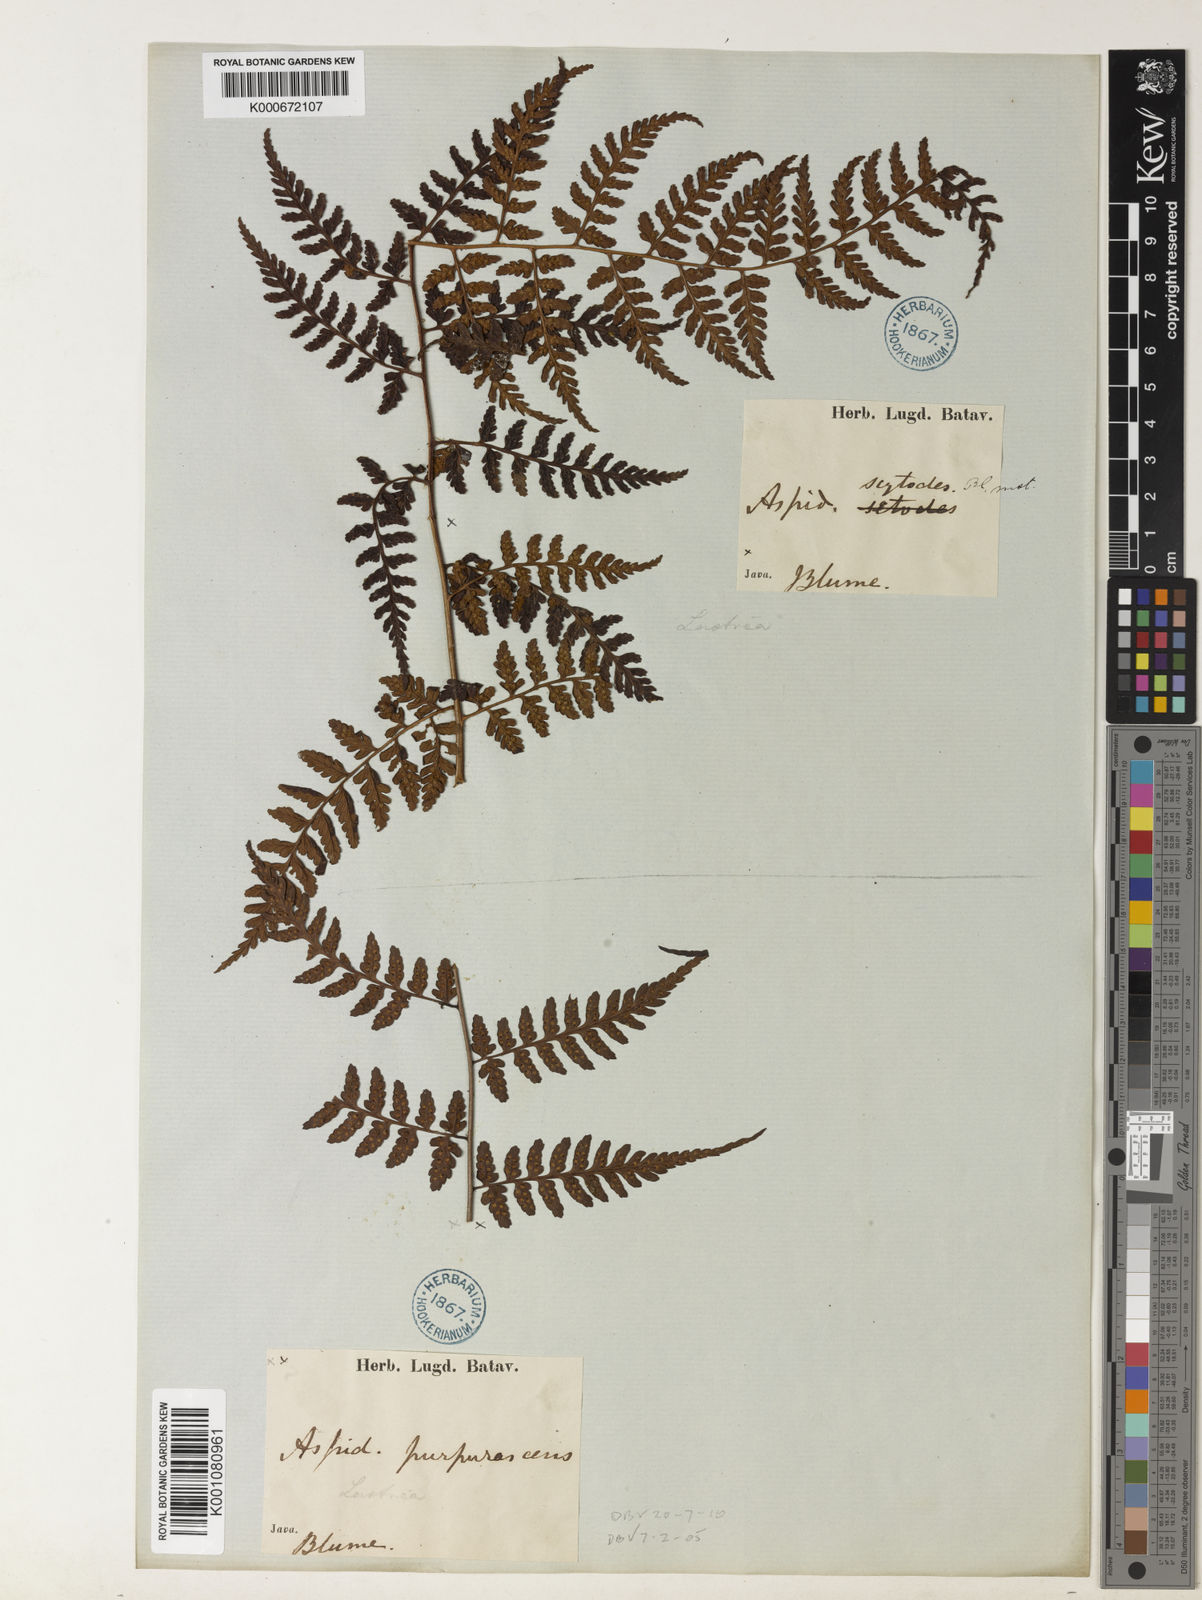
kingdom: Plantae
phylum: Tracheophyta
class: Polypodiopsida
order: Polypodiales
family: Dryopteridaceae
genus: Dryopteris
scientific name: Dryopteris purpurascens
